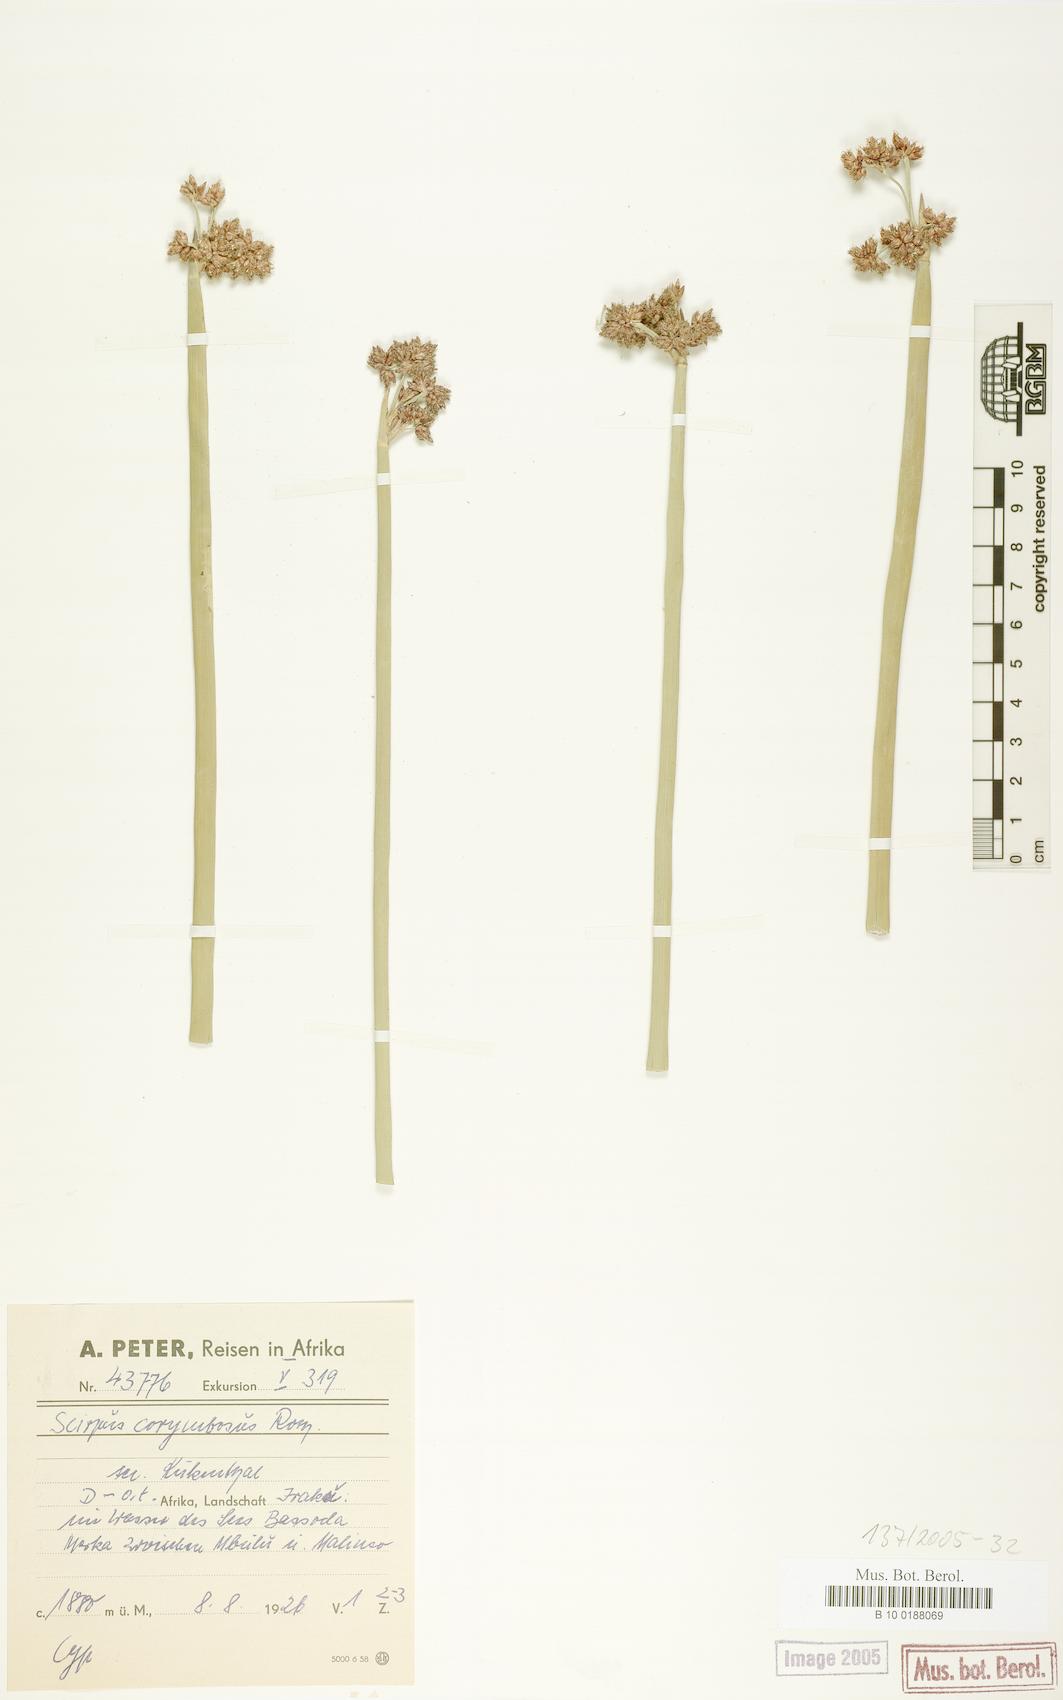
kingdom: Plantae
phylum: Tracheophyta
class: Liliopsida
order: Poales
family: Cyperaceae
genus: Schoenoplectiella
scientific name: Schoenoplectiella brachyceras
